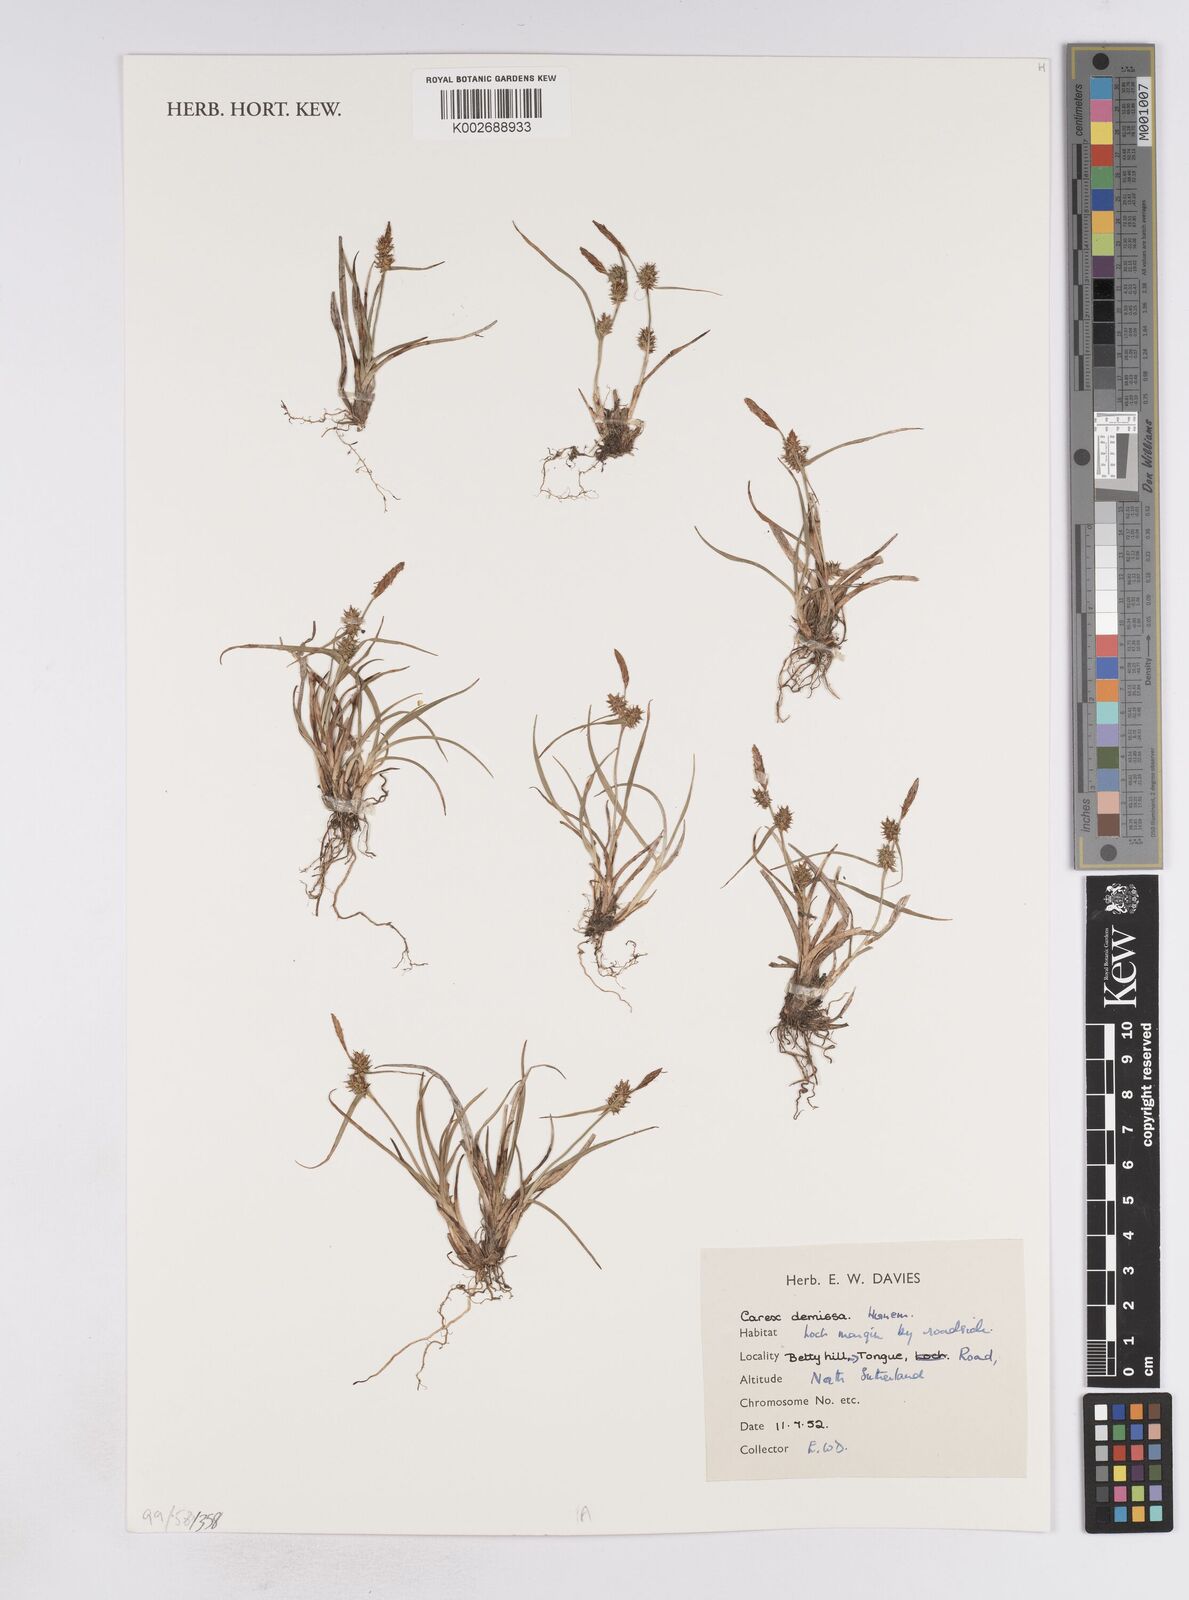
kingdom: Plantae
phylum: Tracheophyta
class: Liliopsida
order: Poales
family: Cyperaceae
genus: Carex
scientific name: Carex demissa
